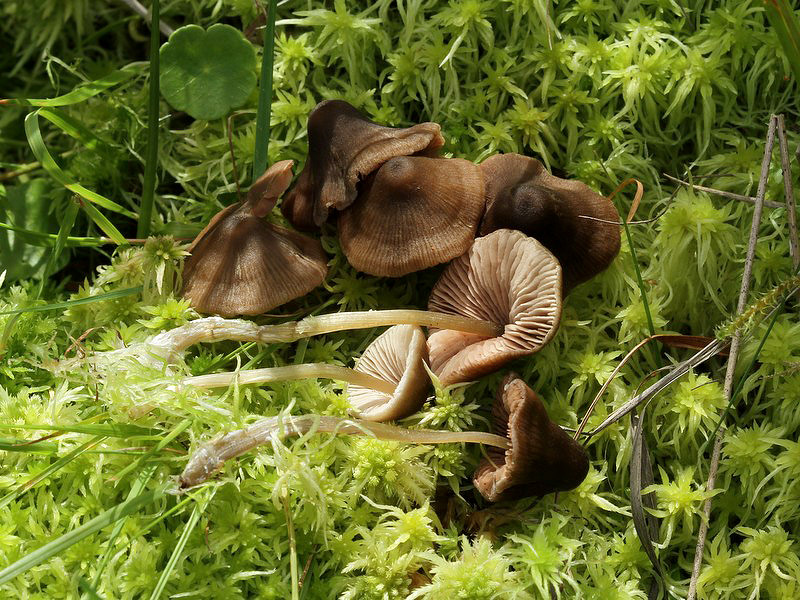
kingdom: Fungi
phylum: Basidiomycota
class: Agaricomycetes
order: Agaricales
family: Entolomataceae
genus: Entoloma
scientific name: Entoloma conferendum
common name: stjernesporet rødblad
